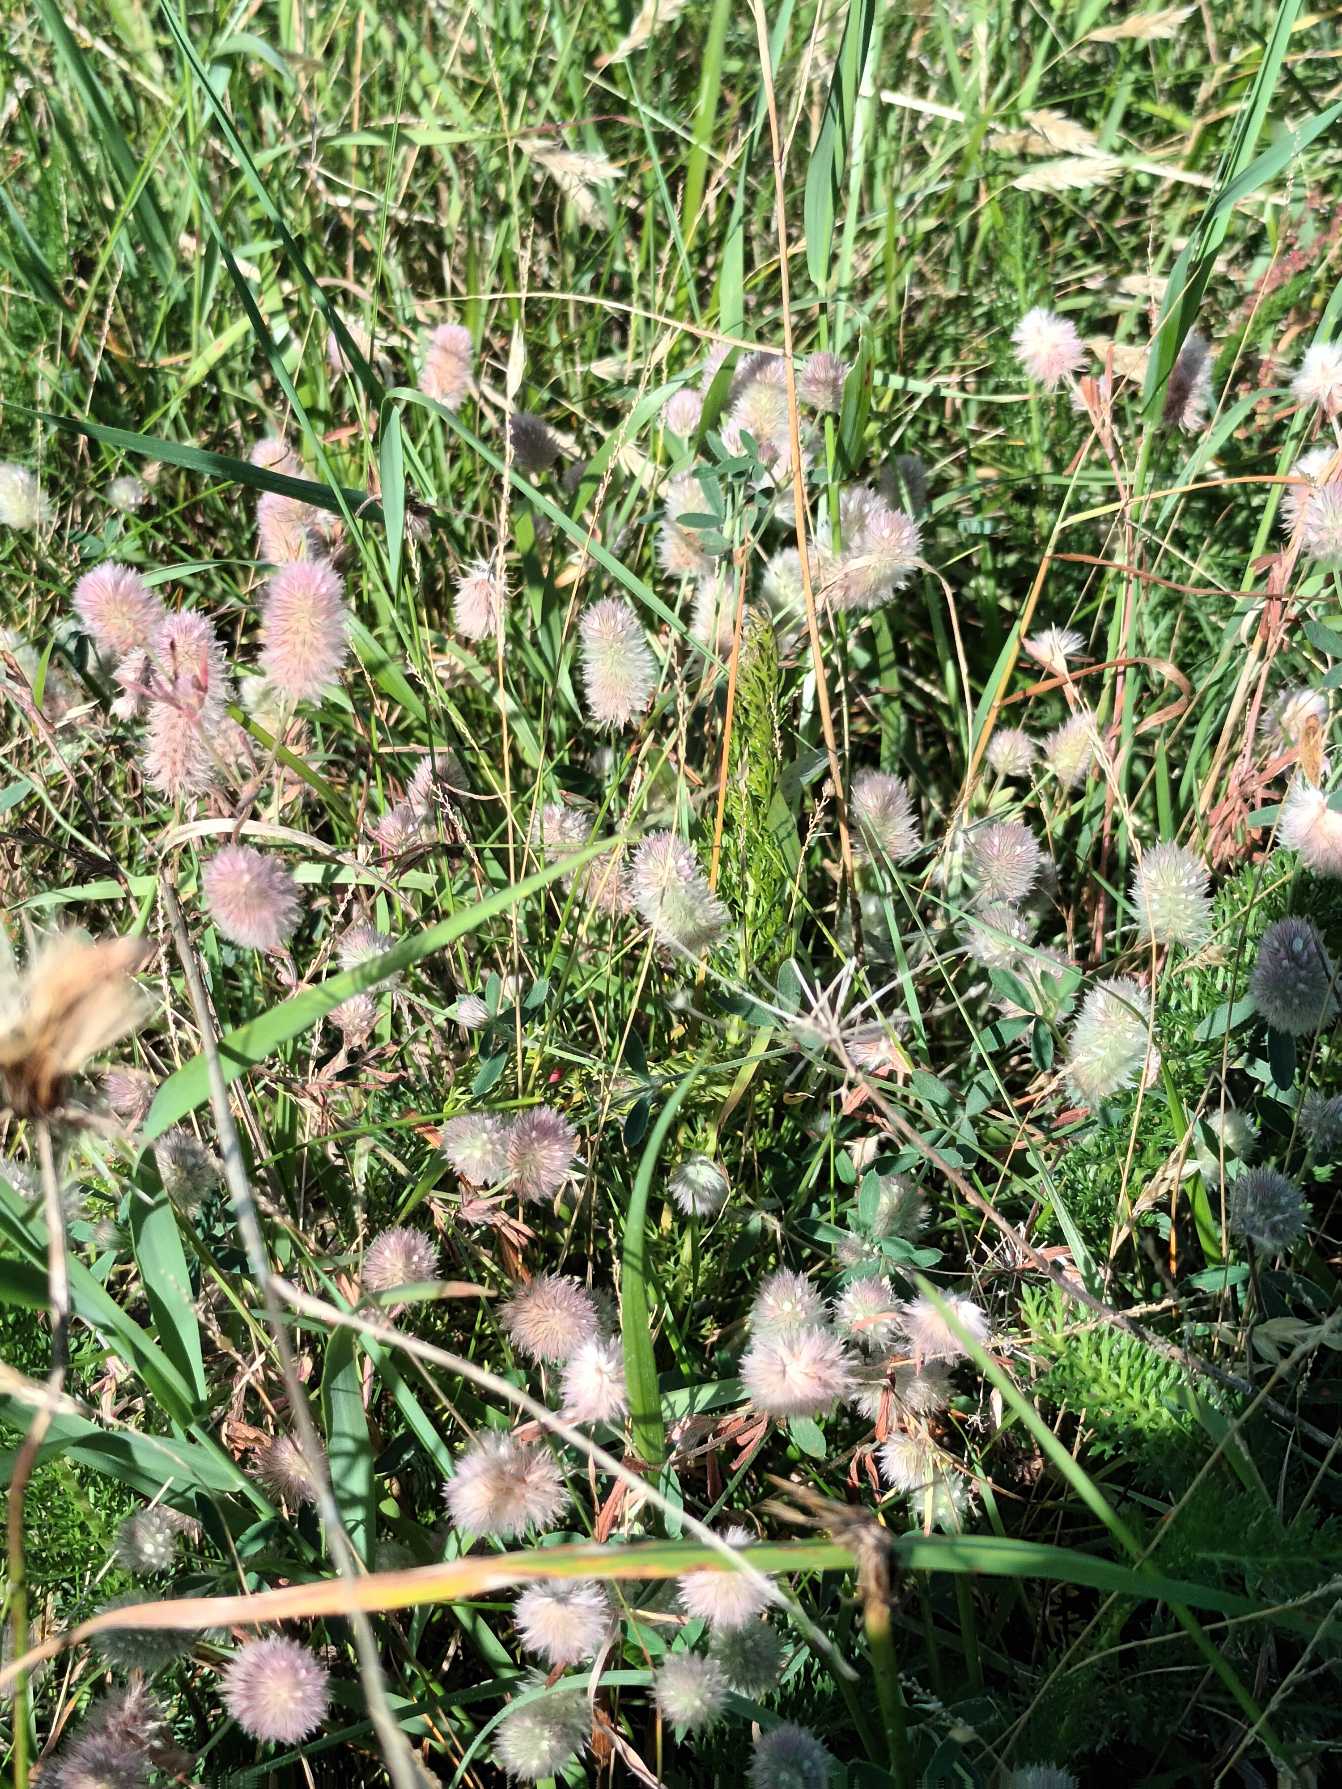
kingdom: Plantae
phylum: Tracheophyta
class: Magnoliopsida
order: Fabales
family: Fabaceae
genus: Trifolium
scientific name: Trifolium arvense
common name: Hare-kløver
